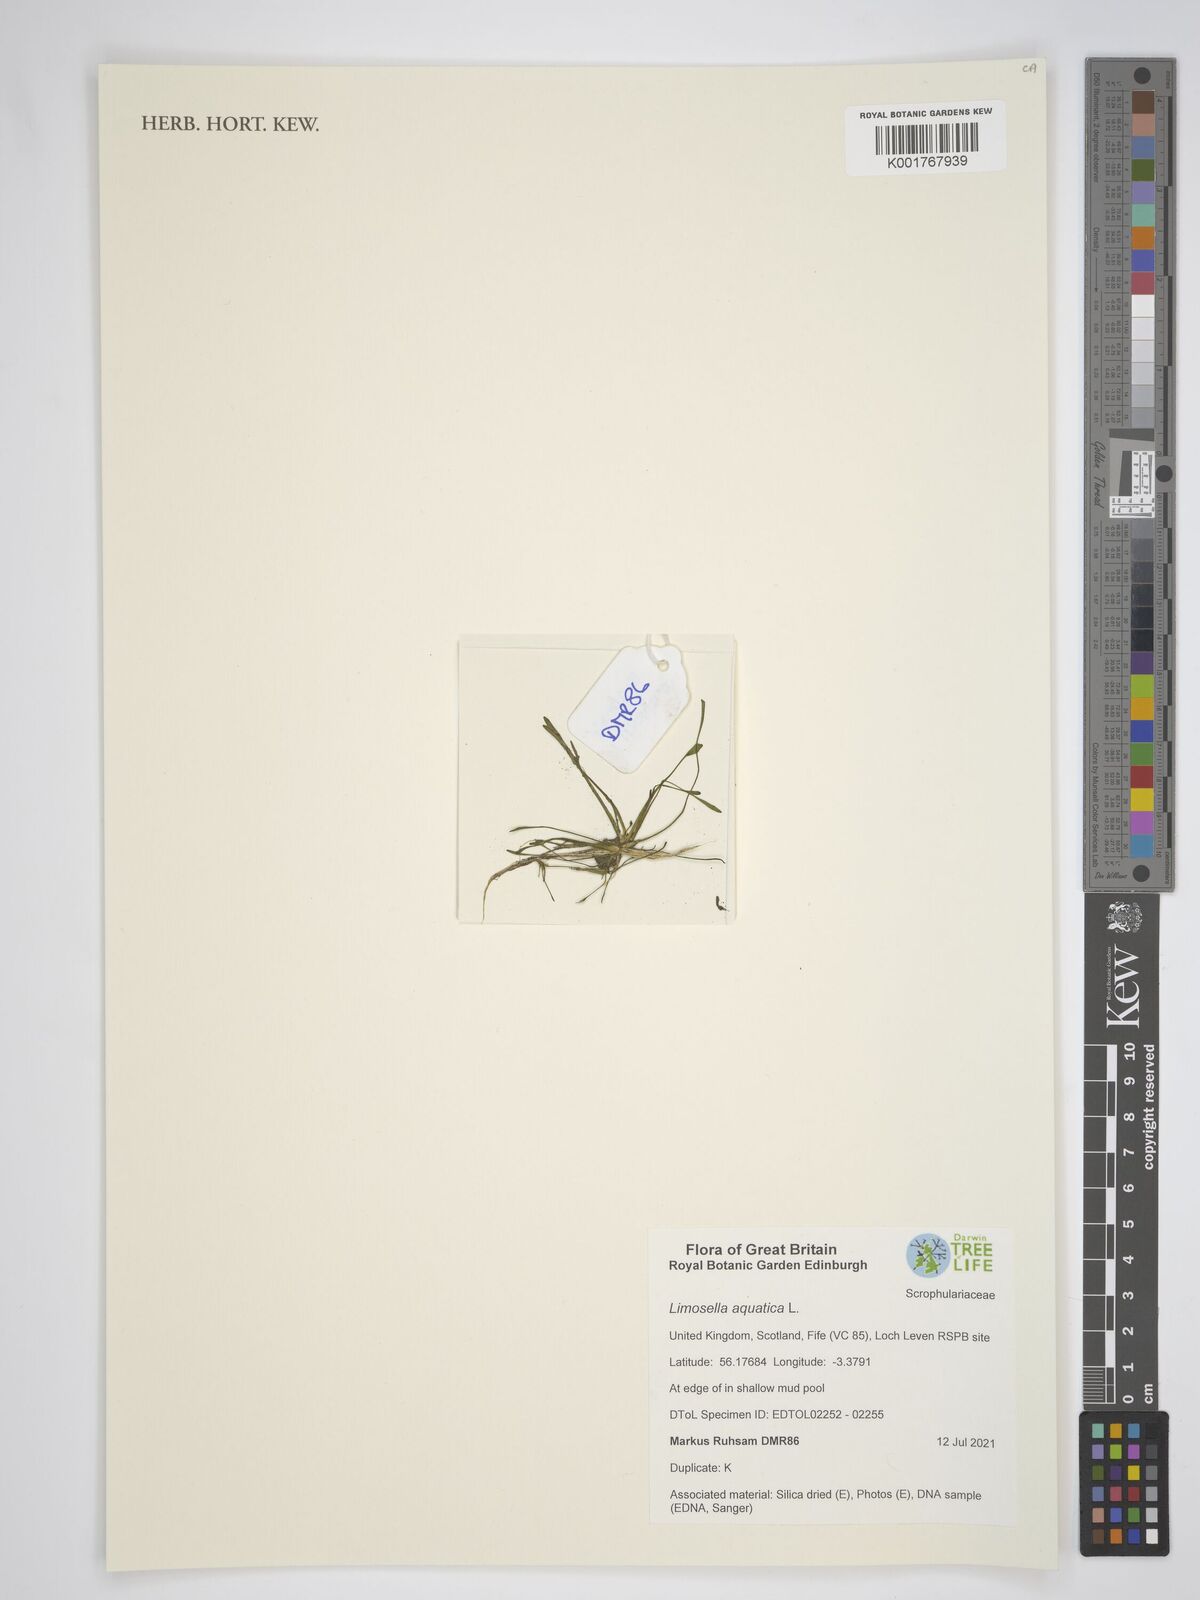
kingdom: Plantae
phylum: Tracheophyta
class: Magnoliopsida
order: Lamiales
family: Scrophulariaceae
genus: Limosella
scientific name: Limosella aquatica
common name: Mudwort
